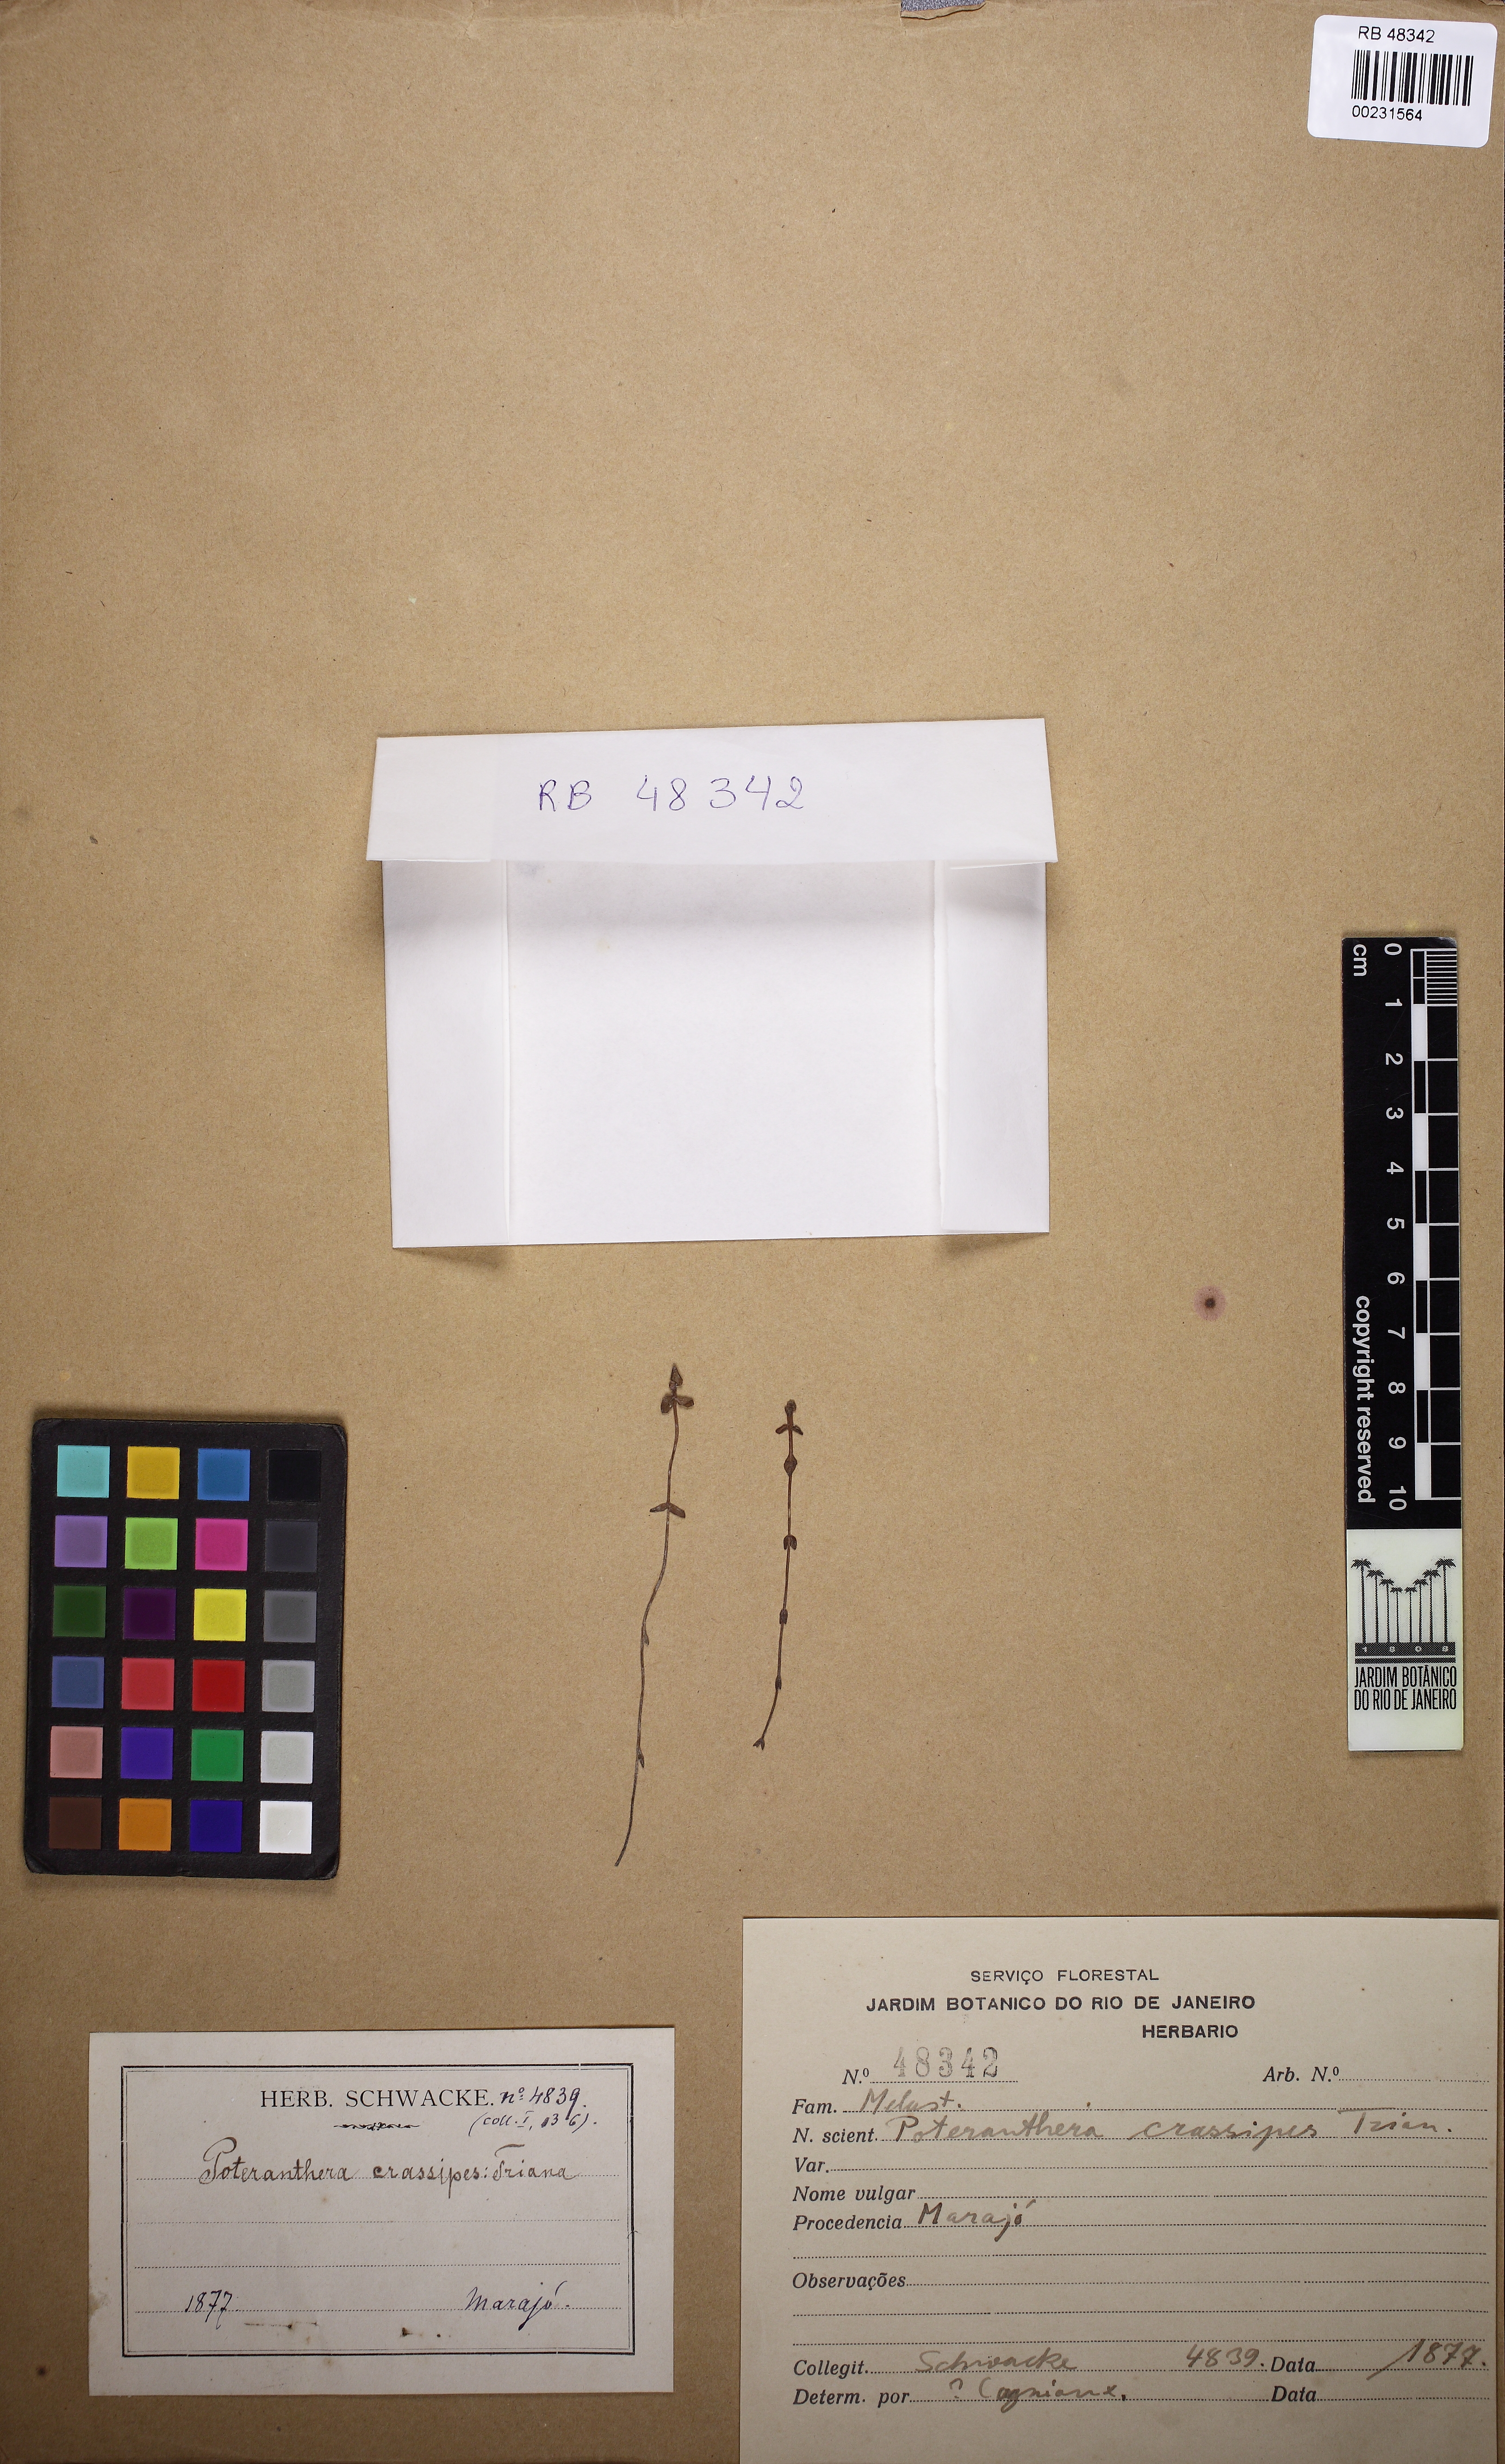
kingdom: Plantae
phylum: Tracheophyta
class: Magnoliopsida
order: Myrtales
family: Melastomataceae
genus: Noterophila
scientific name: Noterophila crassipes
